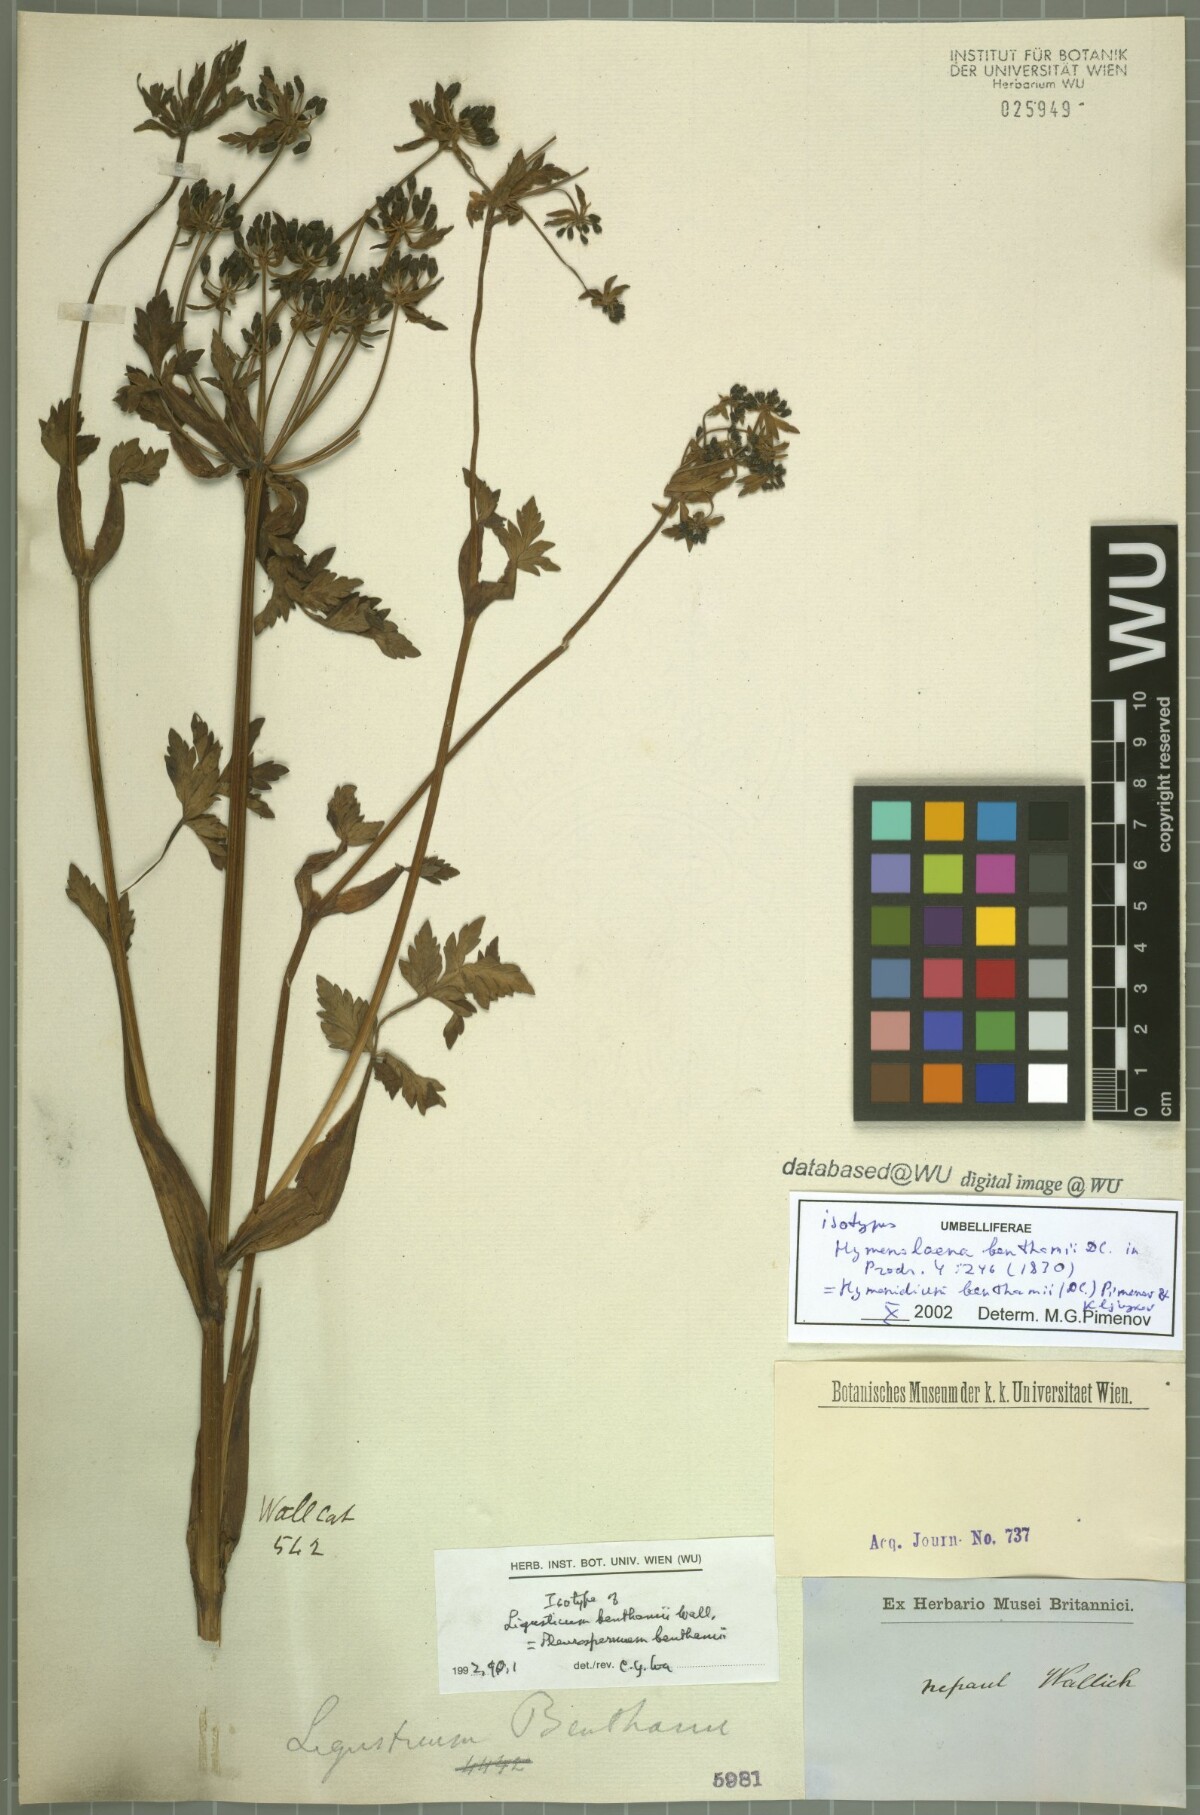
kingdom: Plantae
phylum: Tracheophyta
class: Magnoliopsida
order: Apiales
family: Apiaceae
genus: Hymenidium
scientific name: Hymenidium benthamii
